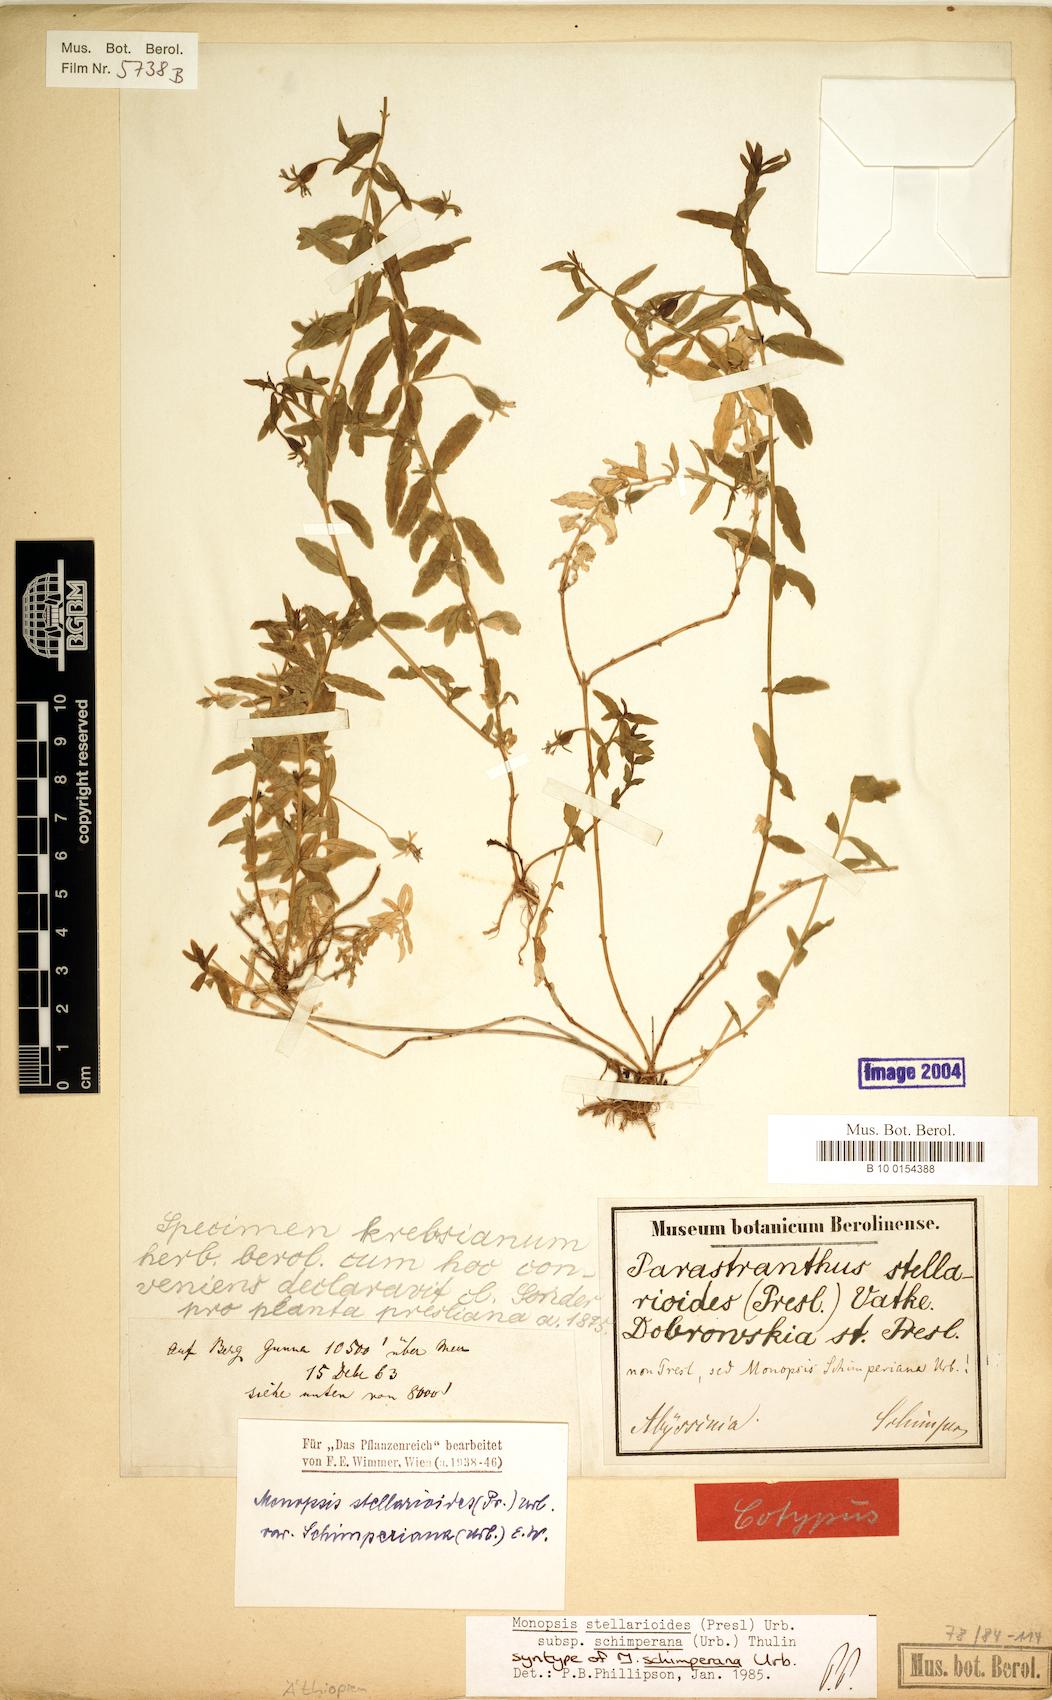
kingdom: Plantae
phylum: Tracheophyta
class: Magnoliopsida
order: Asterales
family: Campanulaceae
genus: Monopsis
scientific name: Monopsis stellarioides
